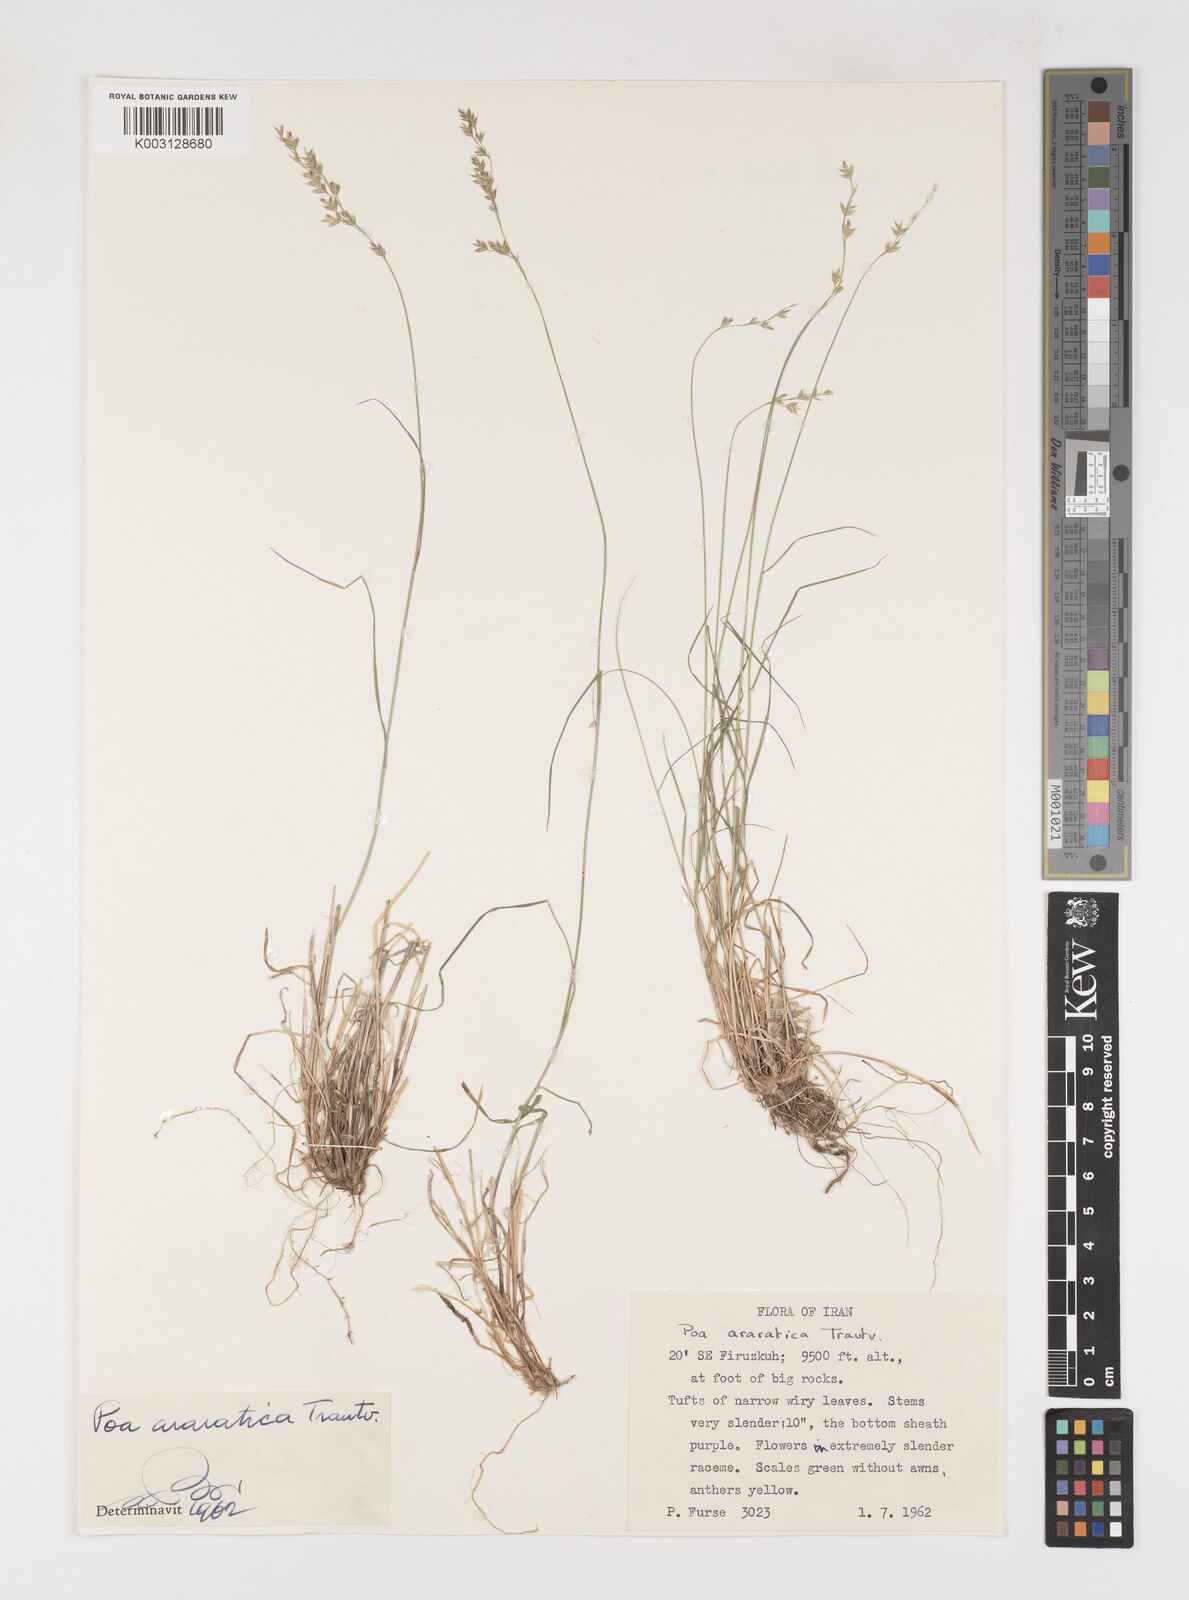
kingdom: Plantae
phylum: Tracheophyta
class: Liliopsida
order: Poales
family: Poaceae
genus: Poa
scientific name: Poa araratica
